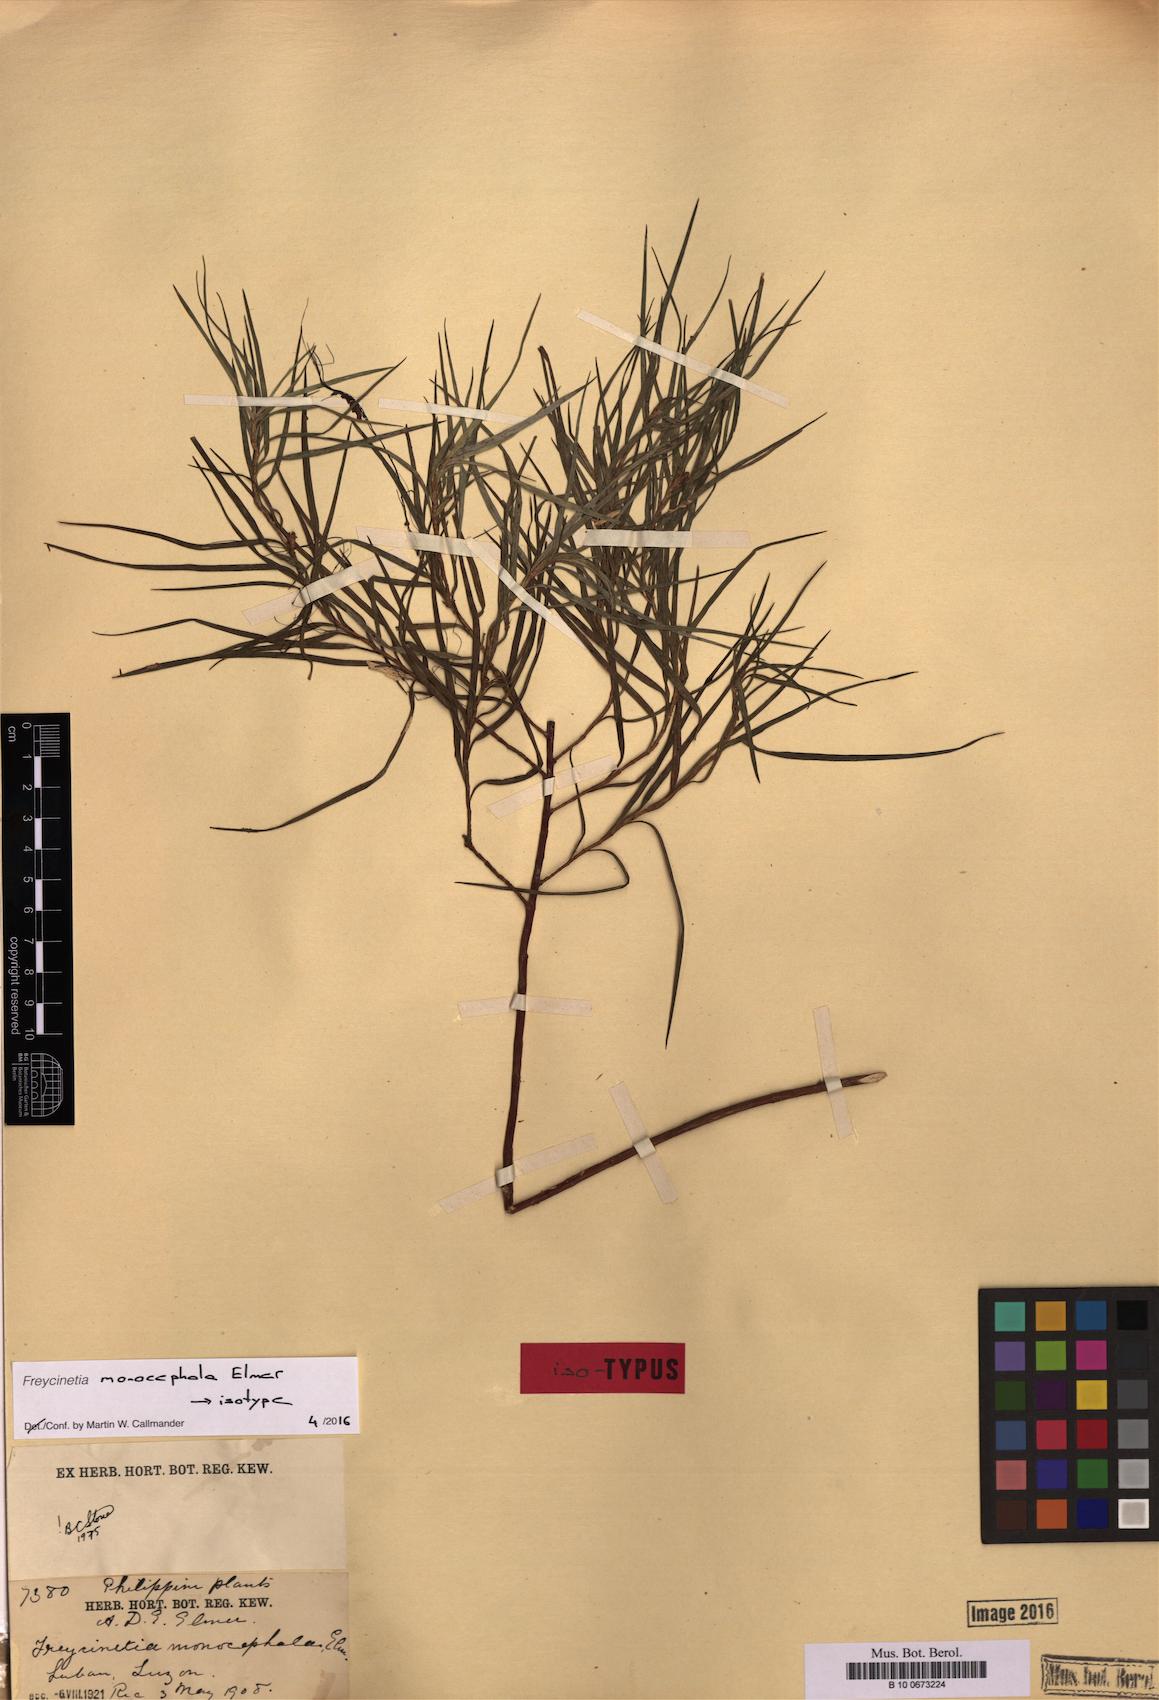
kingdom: Plantae
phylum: Tracheophyta
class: Liliopsida
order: Pandanales
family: Pandanaceae
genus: Freycinetia
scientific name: Freycinetia monocephala
